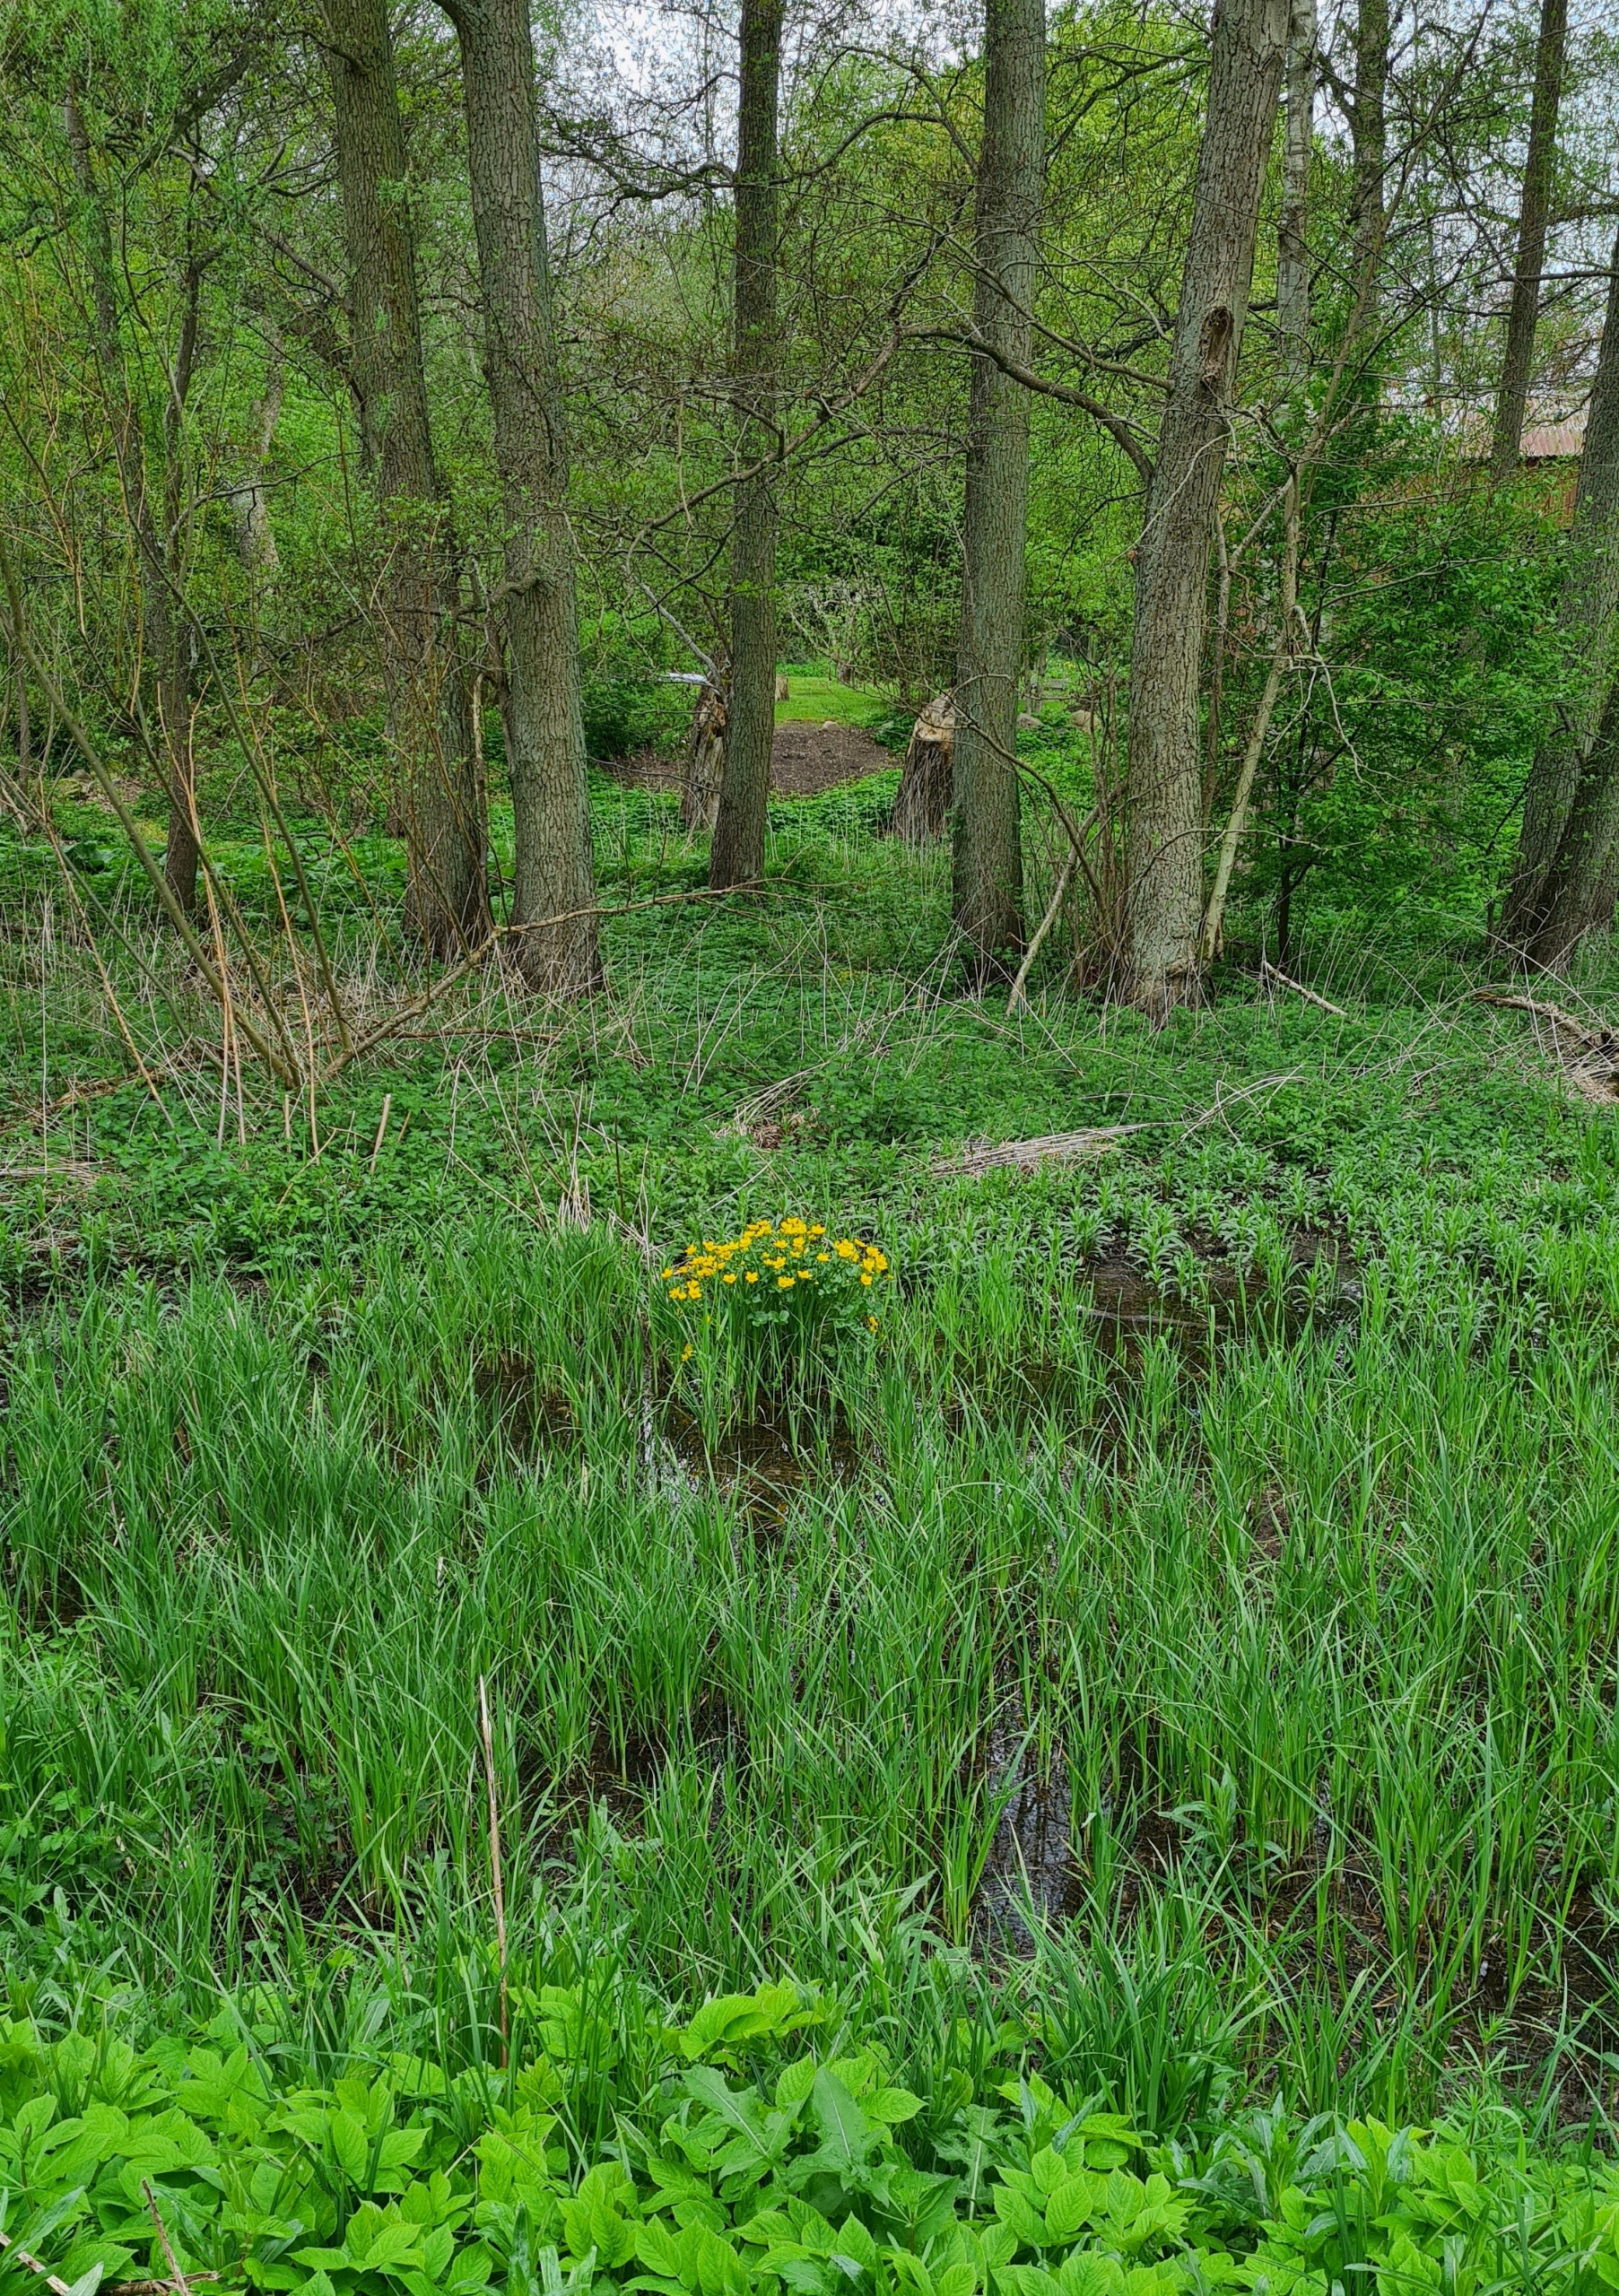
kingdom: Plantae
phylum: Tracheophyta
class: Magnoliopsida
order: Ranunculales
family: Ranunculaceae
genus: Caltha
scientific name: Caltha palustris
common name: Eng-kabbeleje
